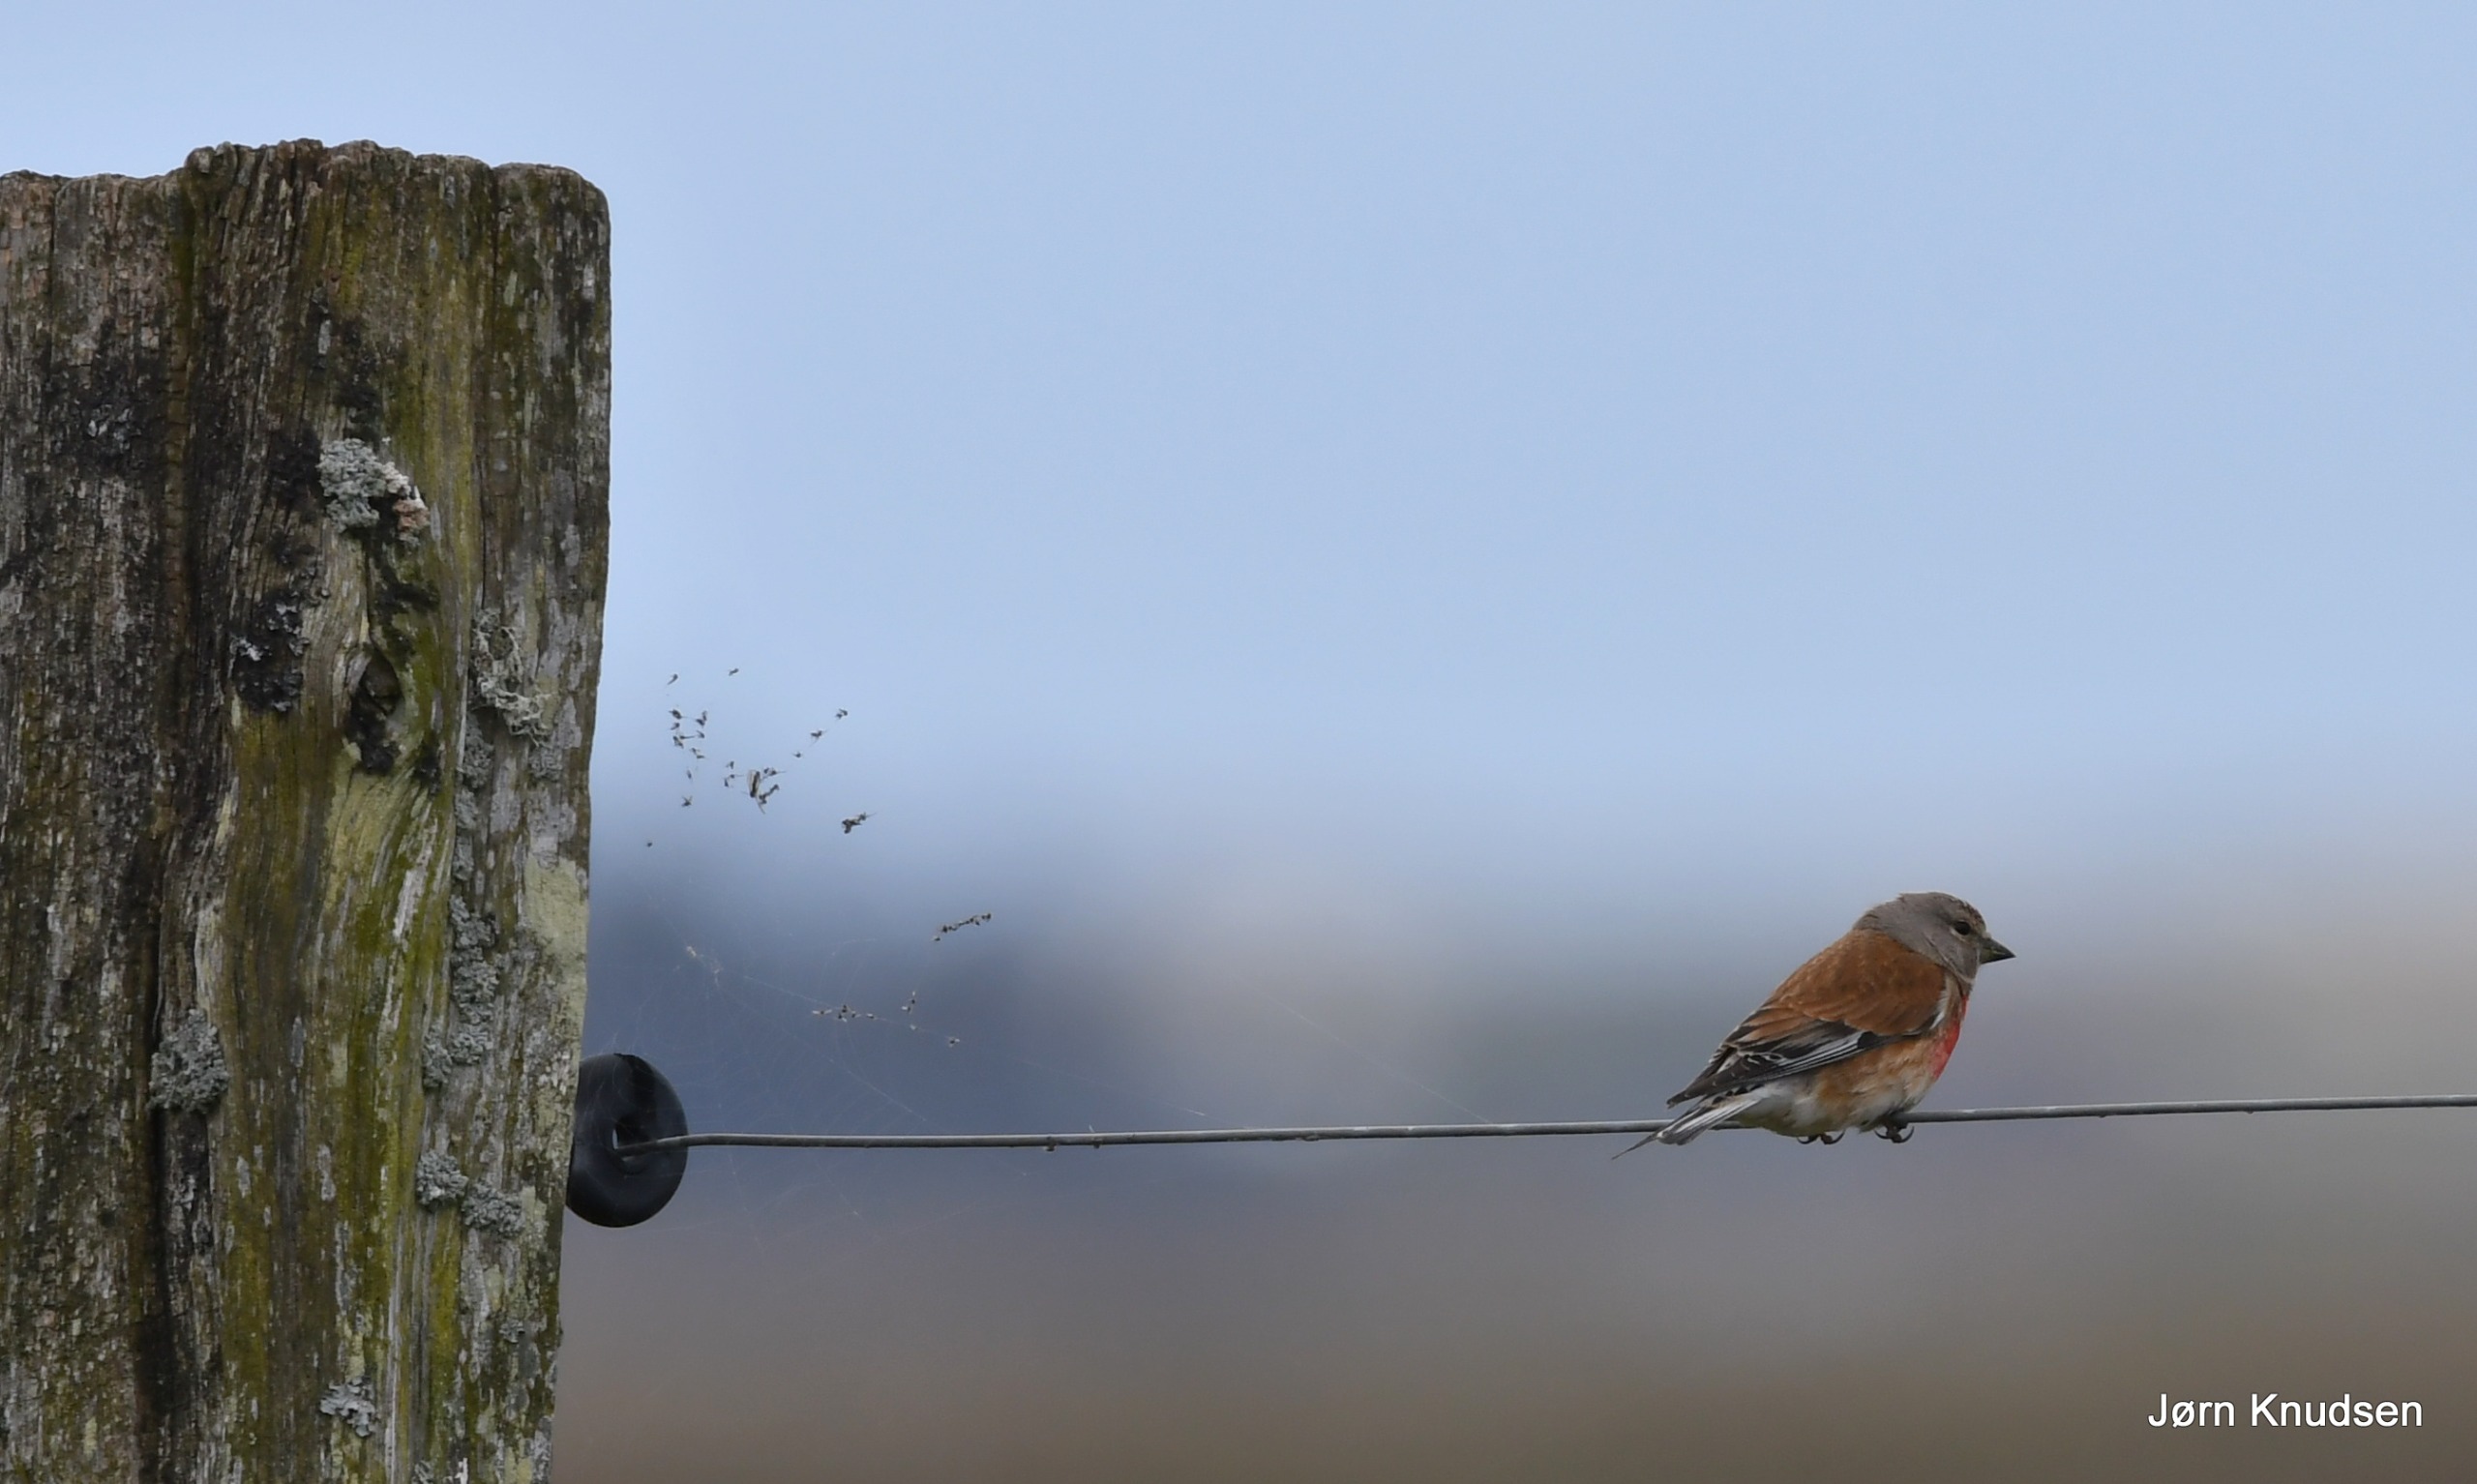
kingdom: Animalia
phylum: Chordata
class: Aves
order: Passeriformes
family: Fringillidae
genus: Linaria
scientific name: Linaria cannabina
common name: Tornirisk
